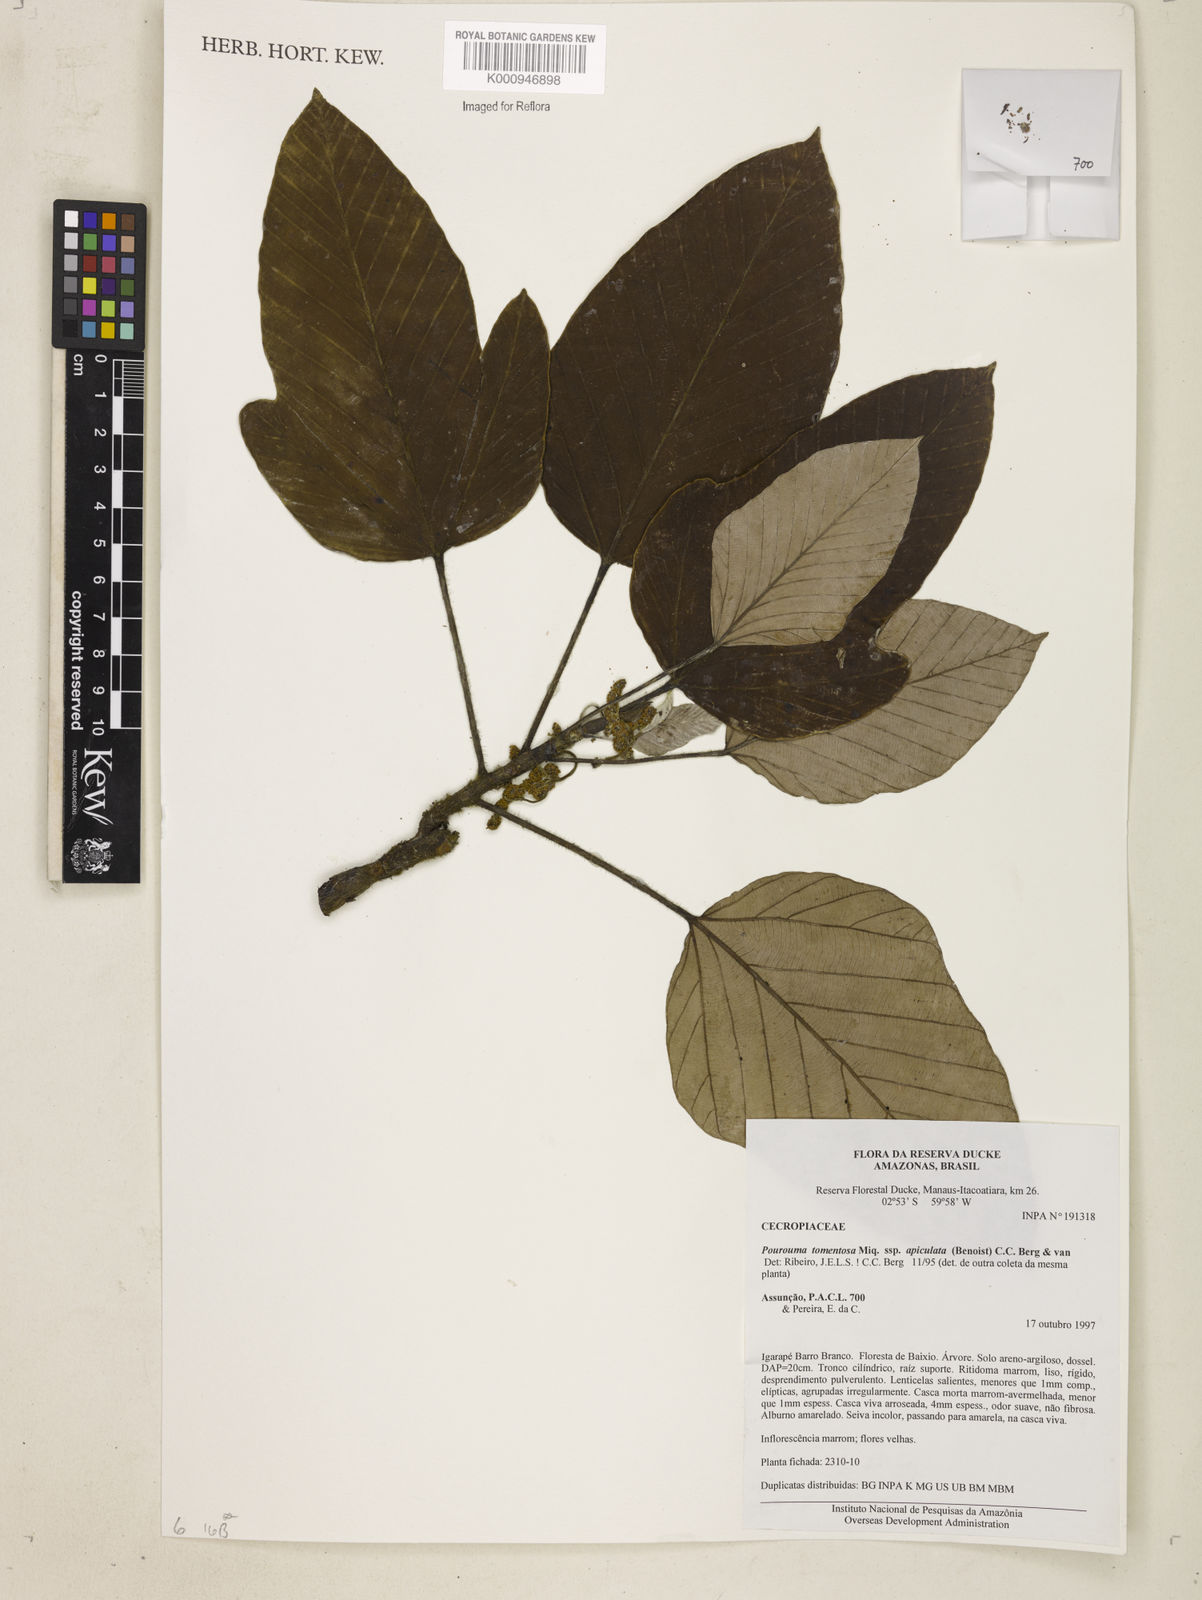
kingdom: Plantae
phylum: Tracheophyta
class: Magnoliopsida
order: Rosales
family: Urticaceae
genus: Pourouma
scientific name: Pourouma tomentosa
